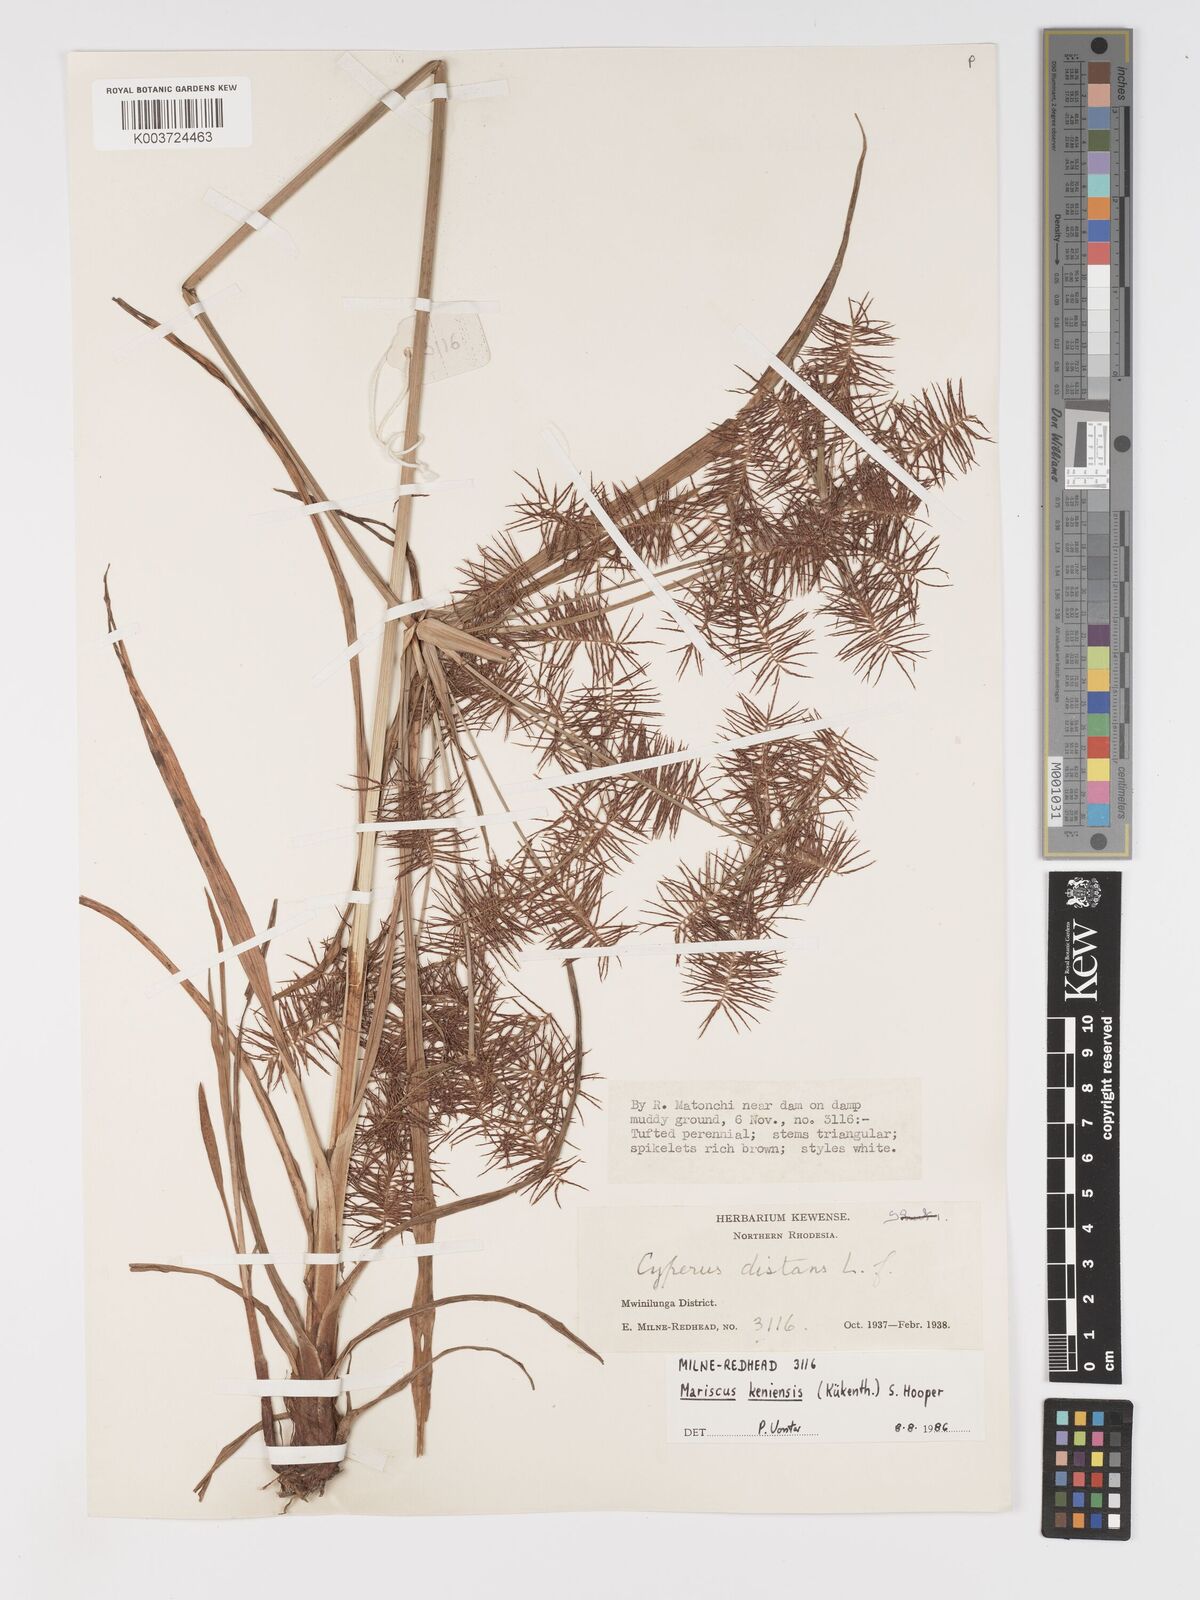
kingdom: Plantae
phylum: Tracheophyta
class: Liliopsida
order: Poales
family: Cyperaceae
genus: Cyperus
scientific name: Cyperus
